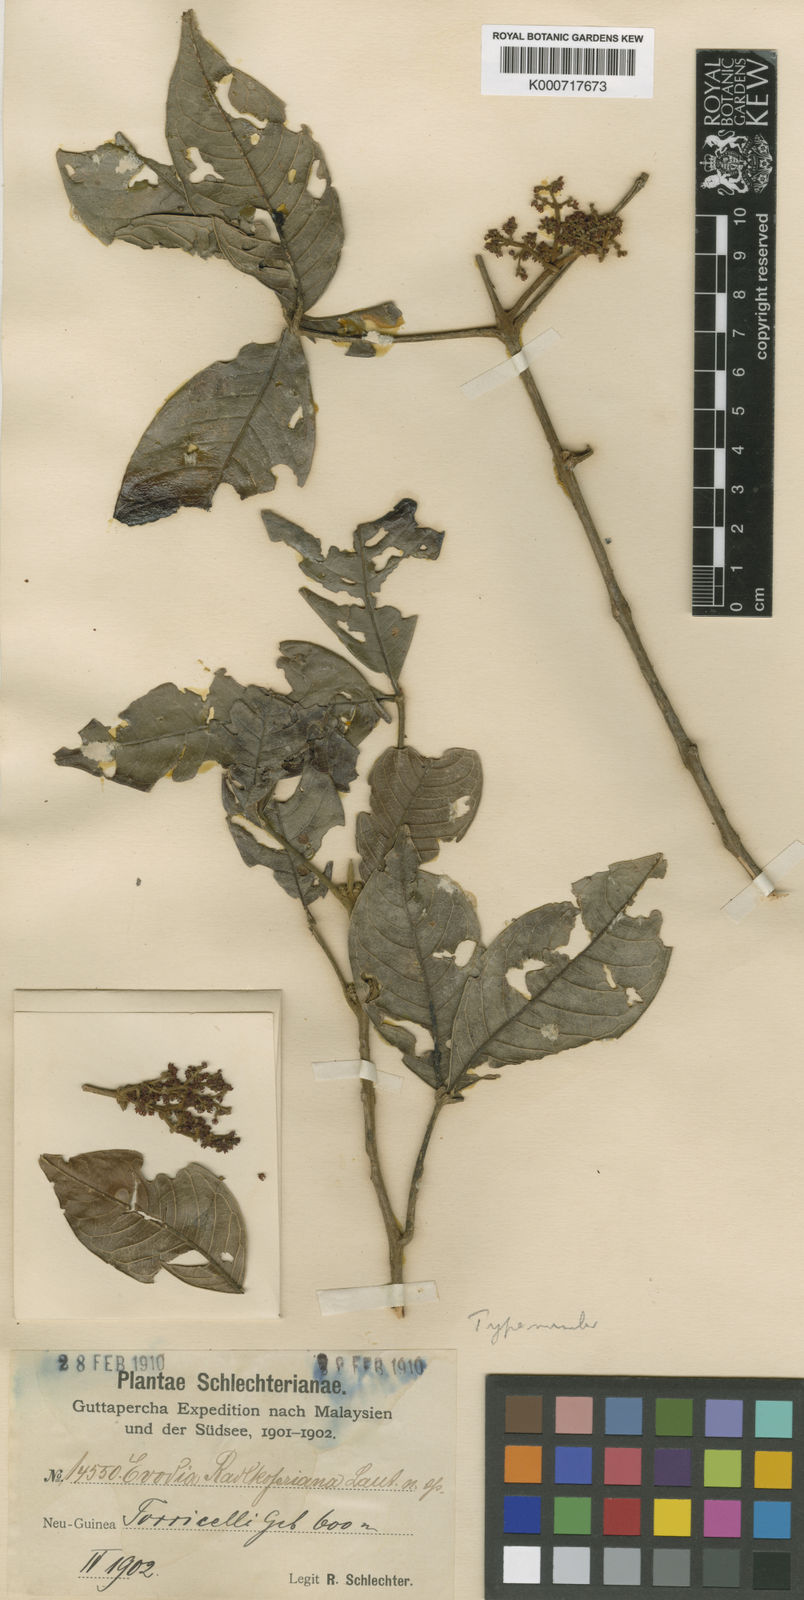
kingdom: Plantae
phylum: Tracheophyta
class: Magnoliopsida
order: Sapindales
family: Rutaceae
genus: Melicope
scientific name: Melicope denhamii
